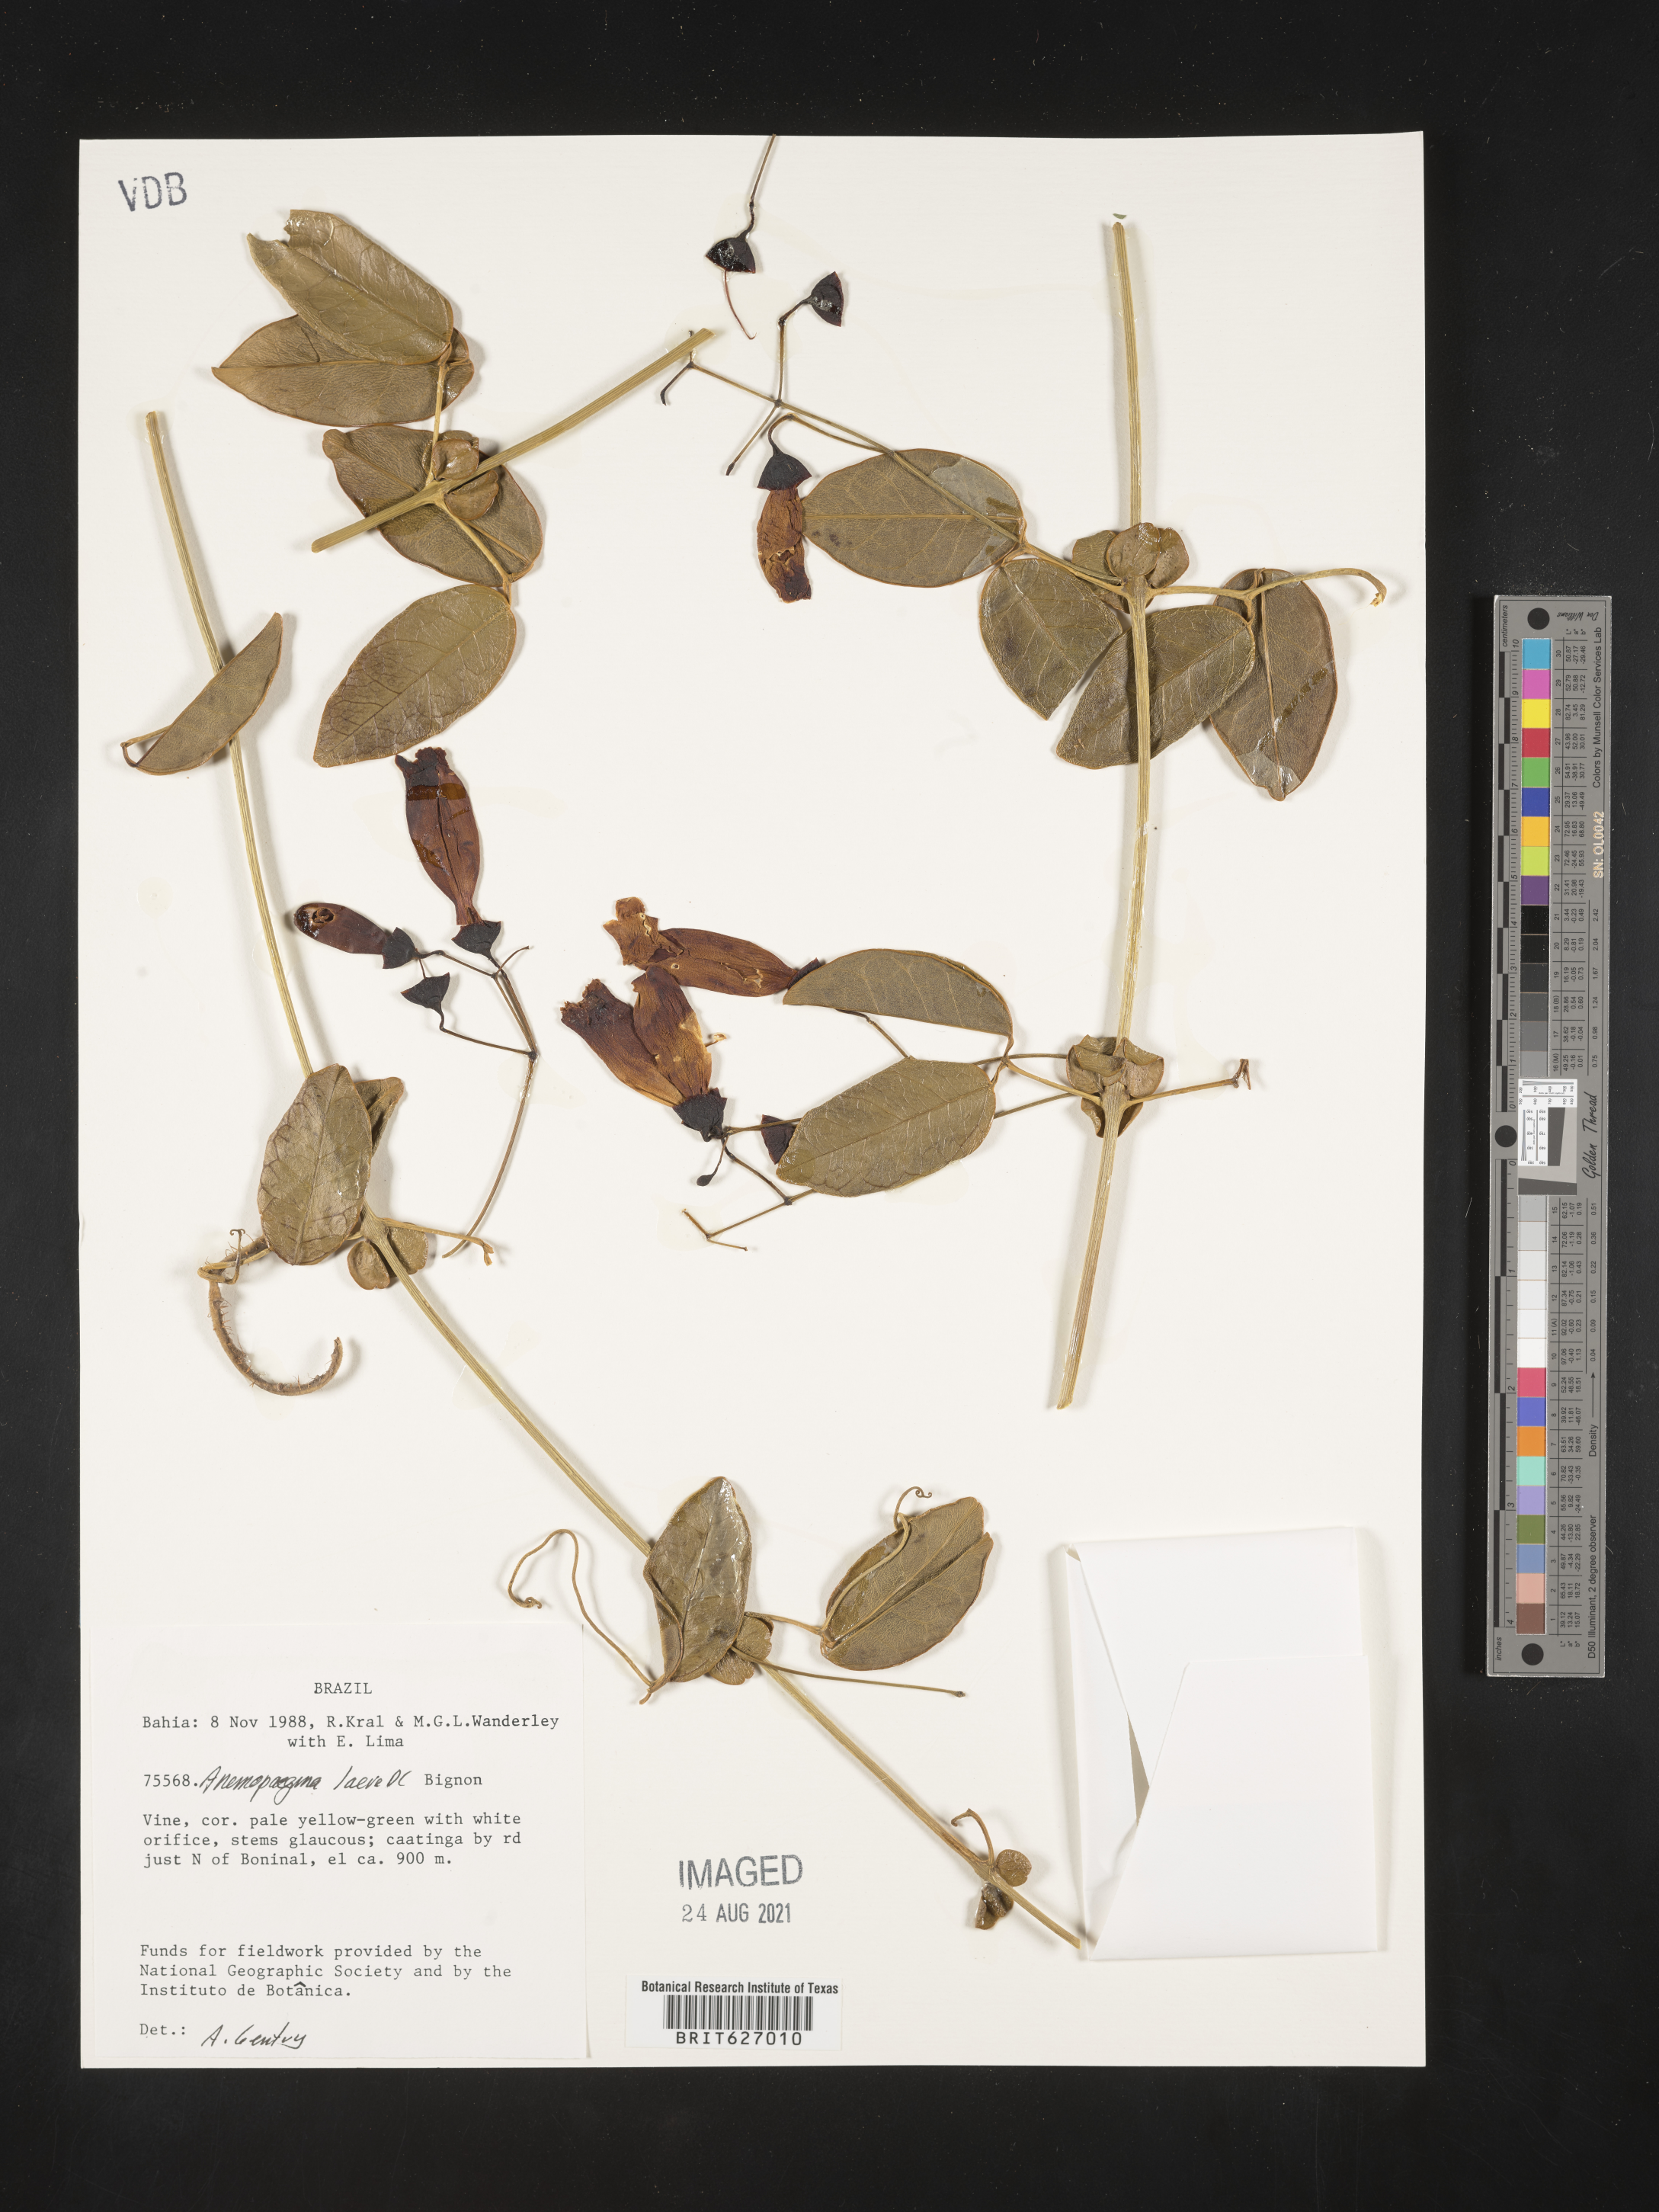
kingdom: Plantae
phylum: Tracheophyta
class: Magnoliopsida
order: Lamiales
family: Bignoniaceae
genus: Anemopaegma
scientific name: Anemopaegma laeve
